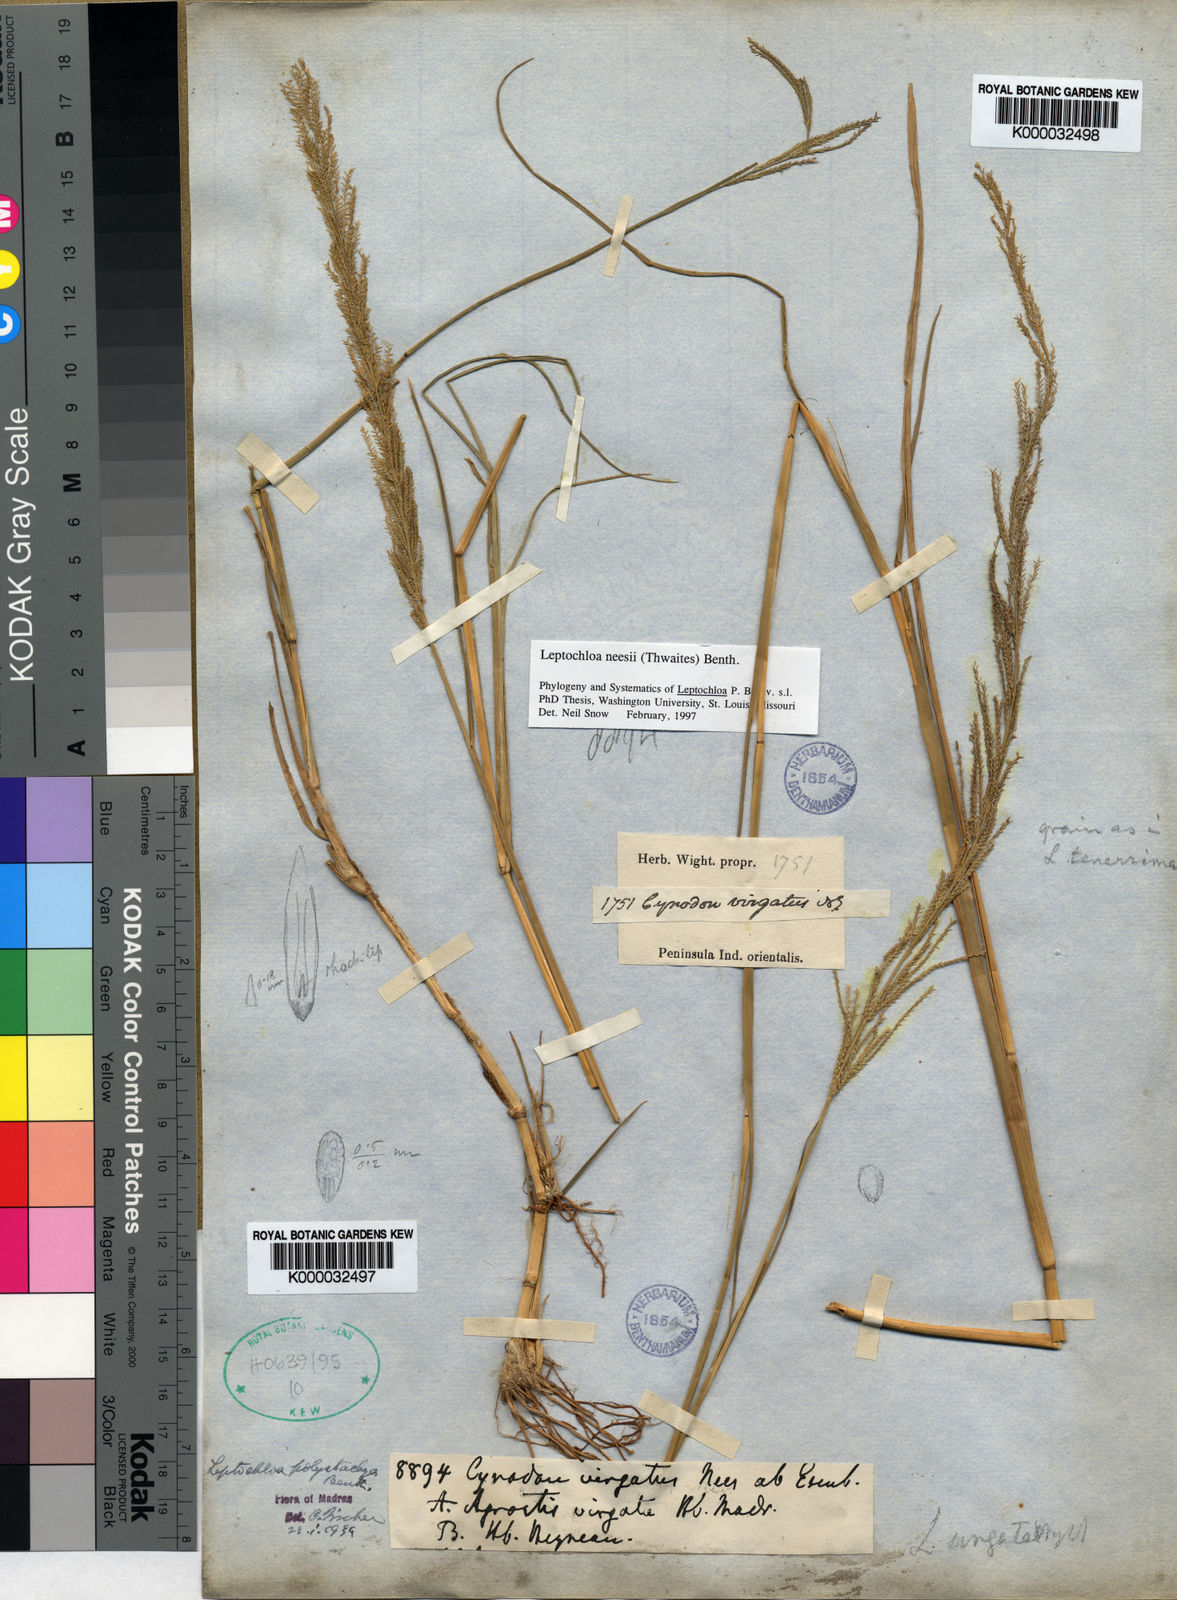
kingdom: Plantae
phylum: Tracheophyta
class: Liliopsida
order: Poales
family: Poaceae
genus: Diplachne
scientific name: Diplachne fusca
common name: Brown beetle grass
